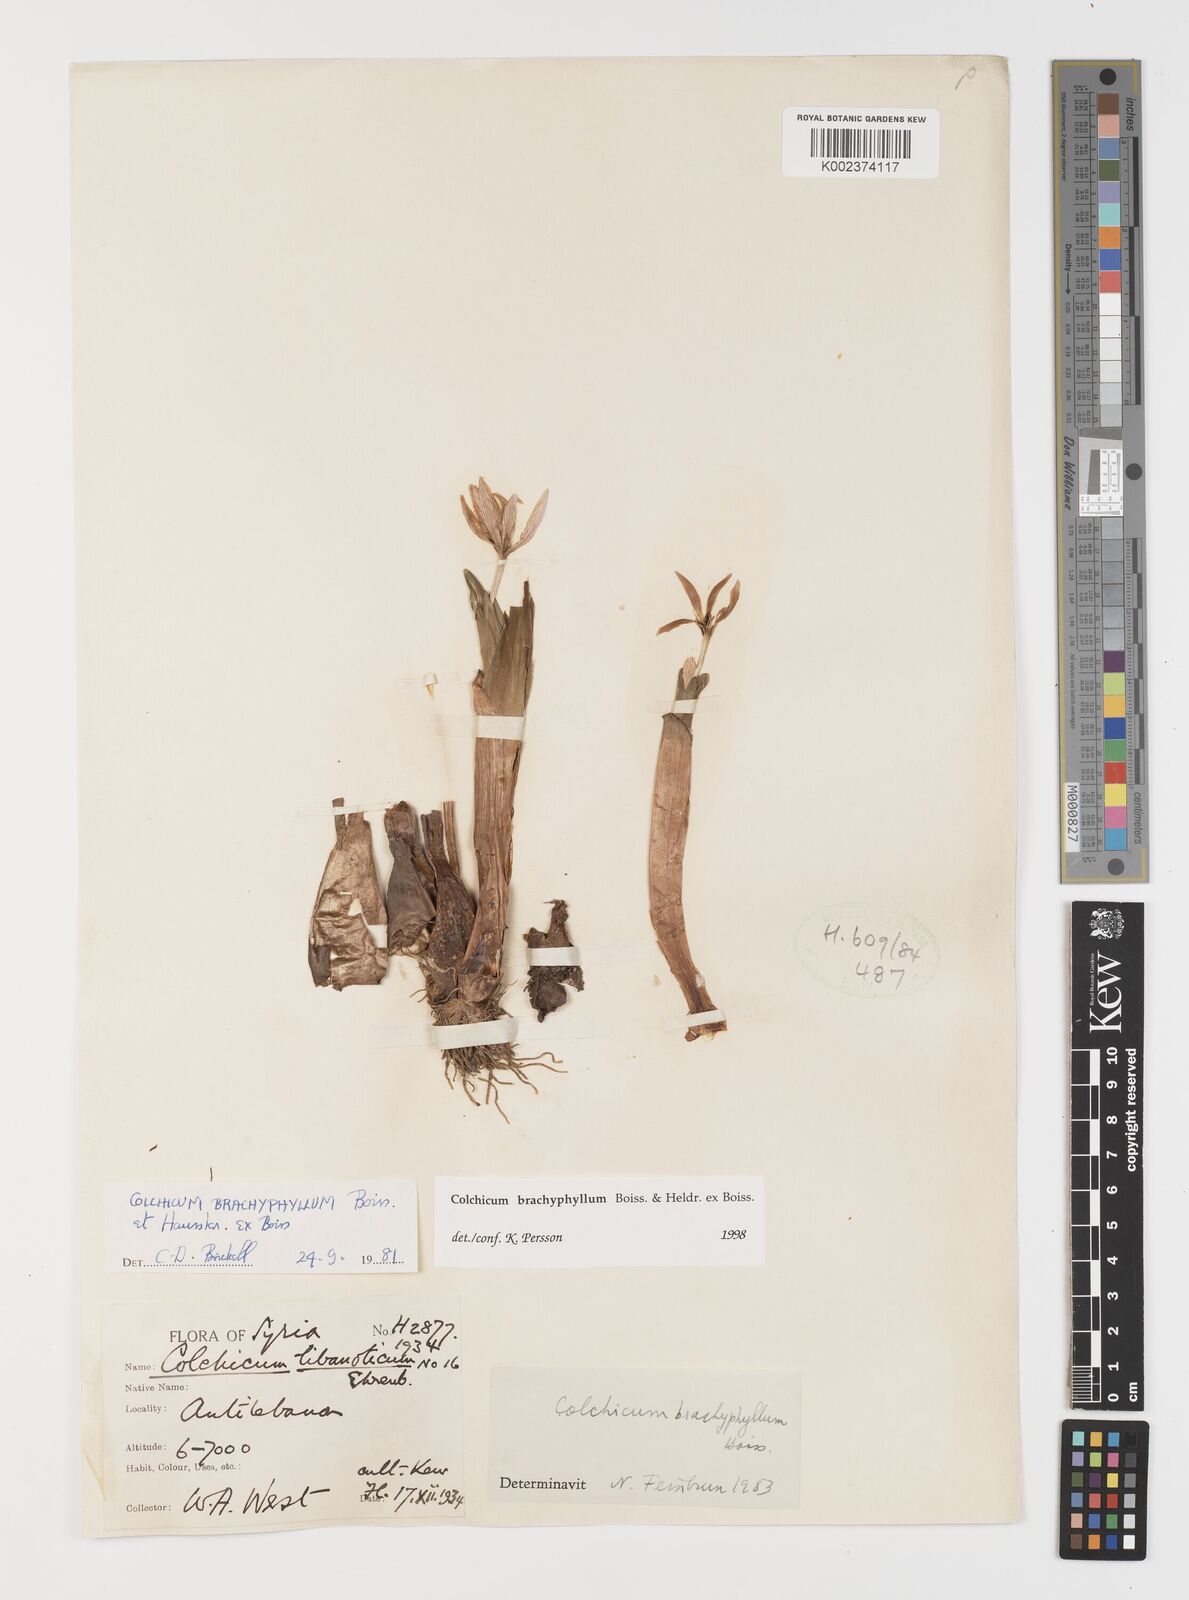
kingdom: Plantae
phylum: Tracheophyta
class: Liliopsida
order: Liliales
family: Colchicaceae
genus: Colchicum
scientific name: Colchicum szovitsii
